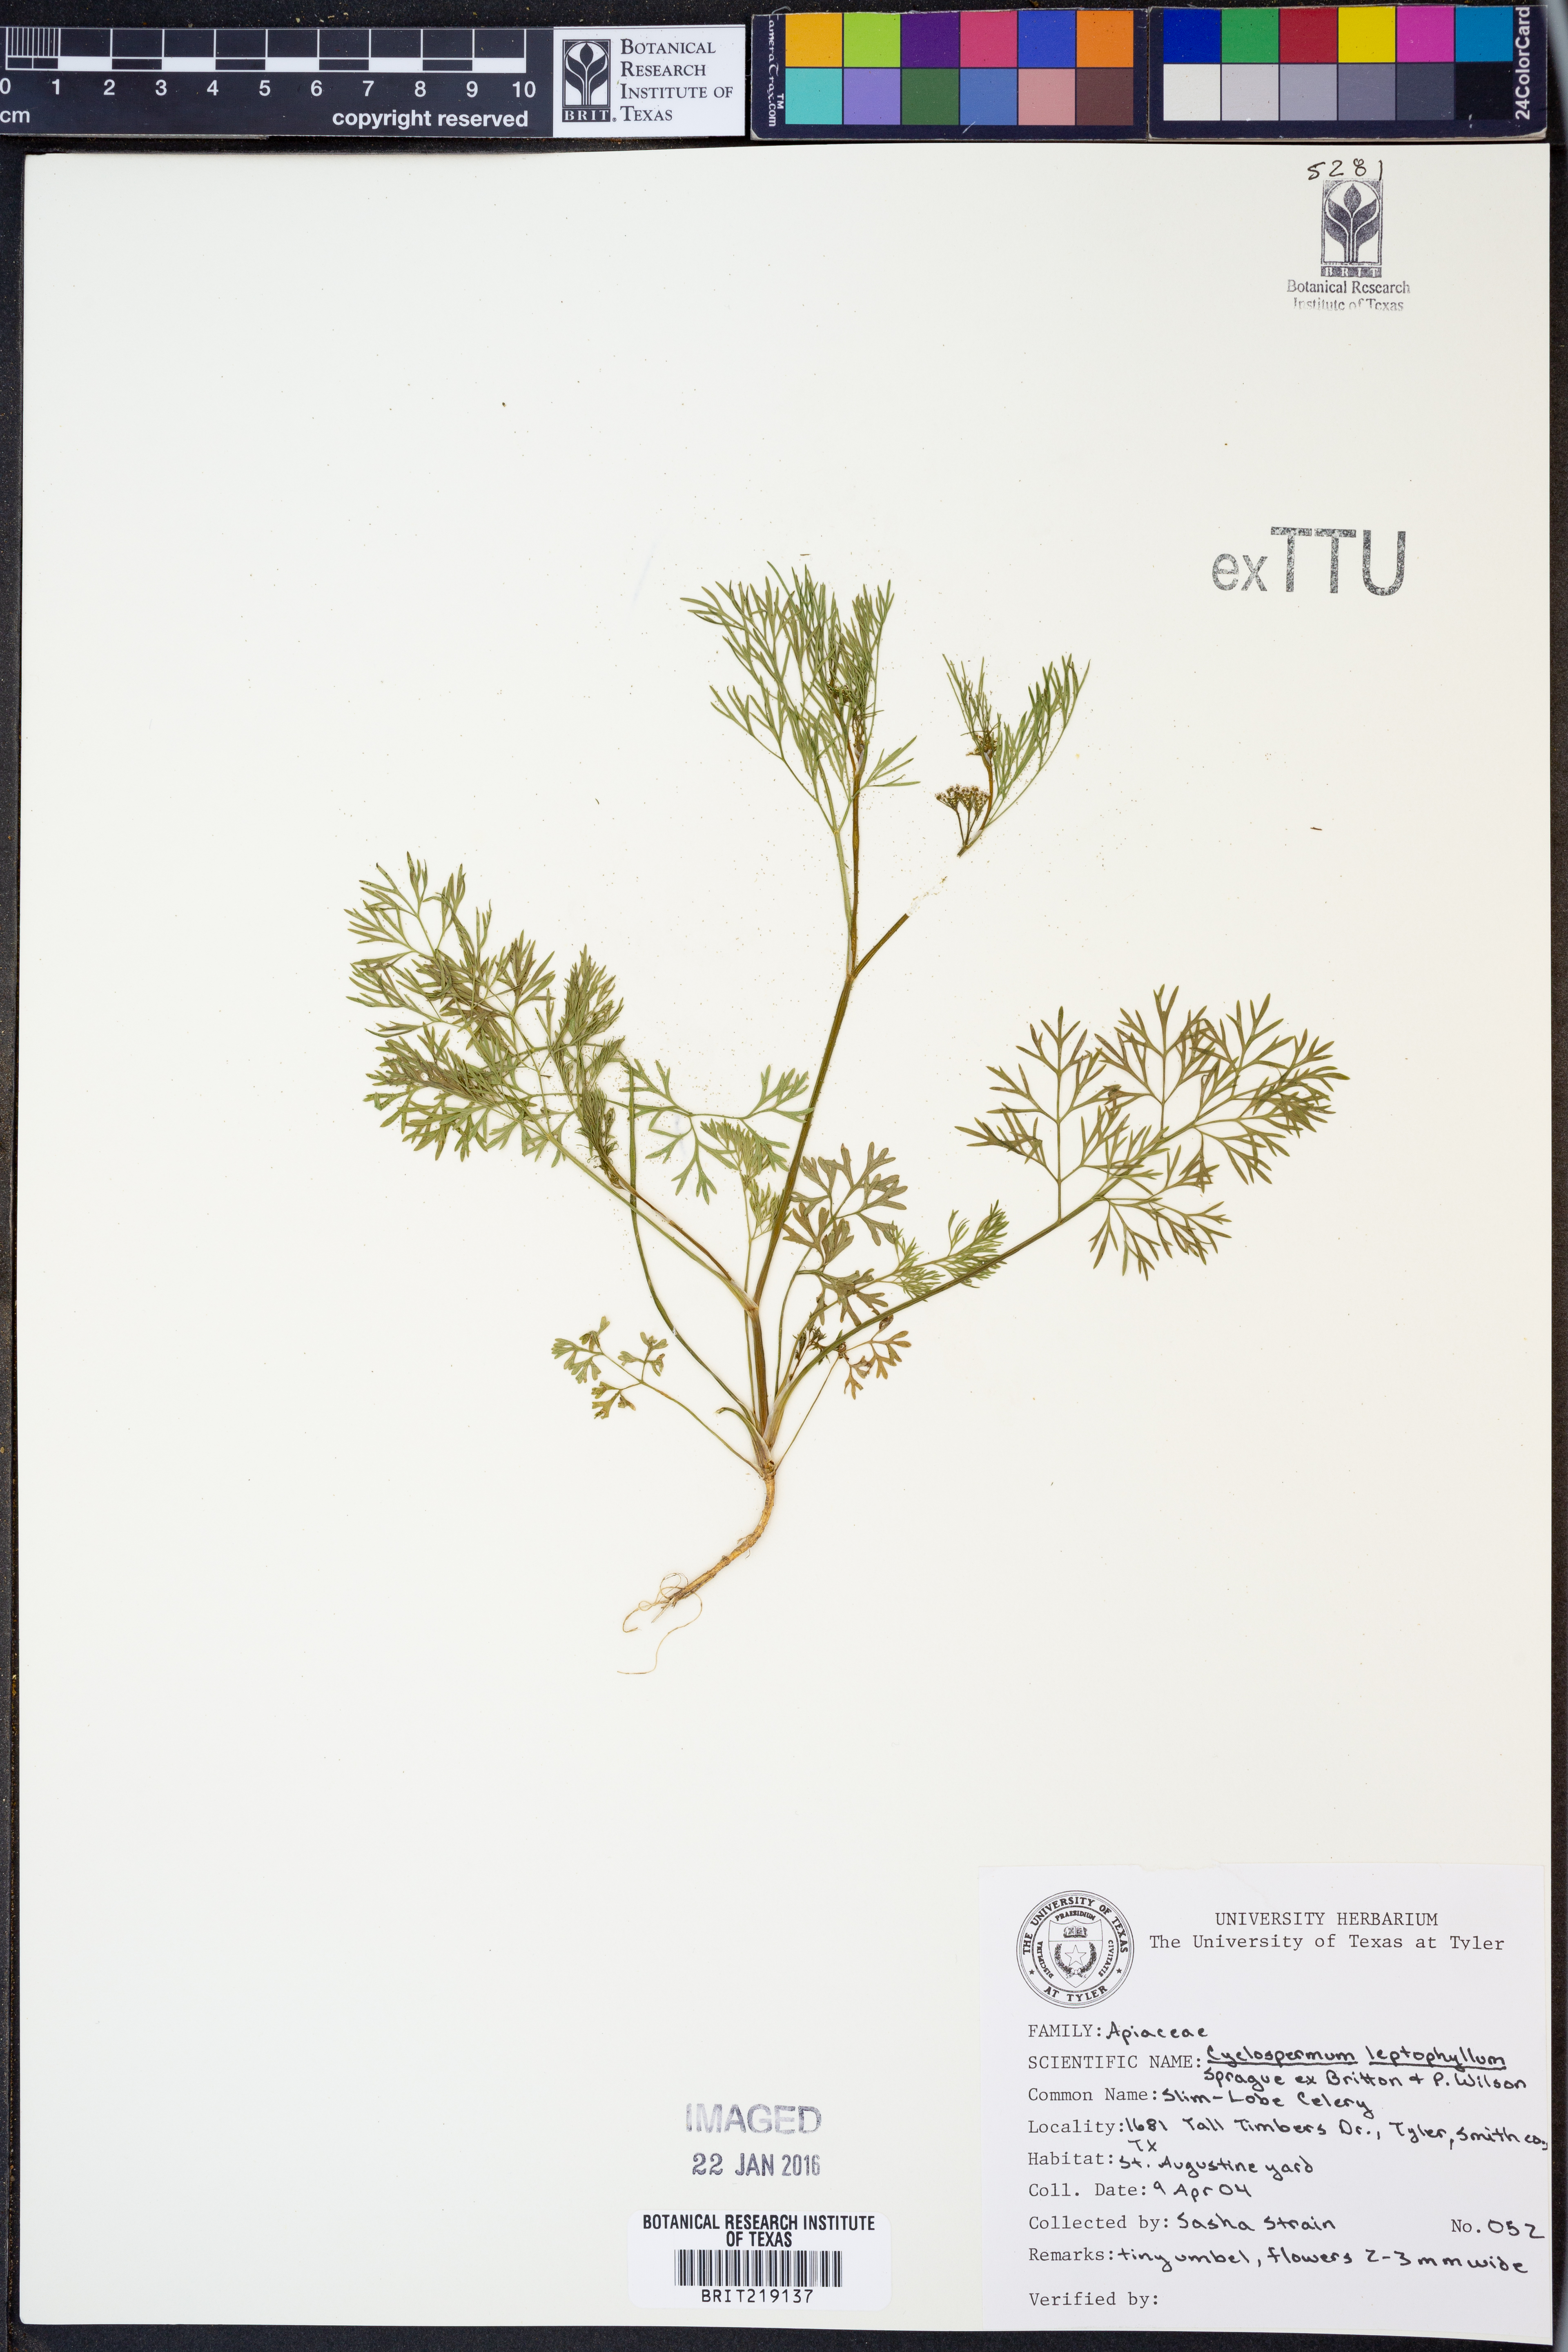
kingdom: Plantae
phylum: Tracheophyta
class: Magnoliopsida
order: Apiales
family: Apiaceae
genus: Cyclospermum
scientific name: Cyclospermum leptophyllum
